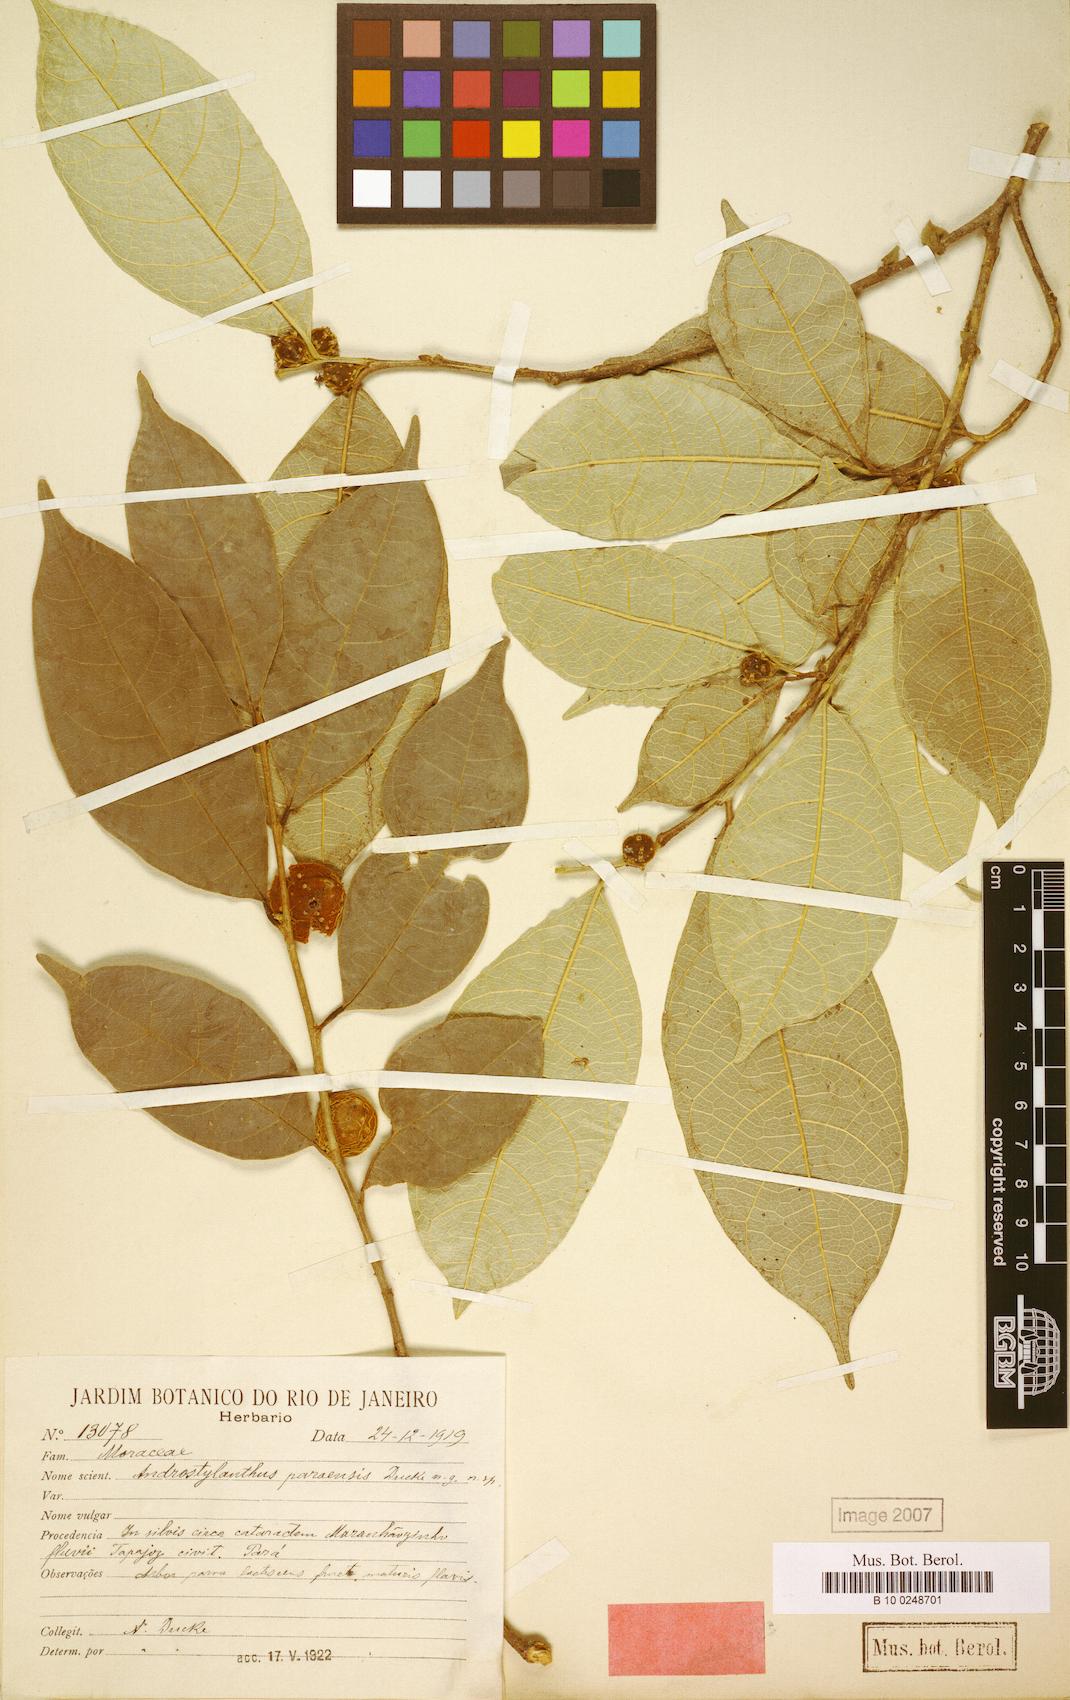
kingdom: Plantae
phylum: Tracheophyta
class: Magnoliopsida
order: Rosales
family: Moraceae
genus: Brosimum
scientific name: Brosimum sprucei
